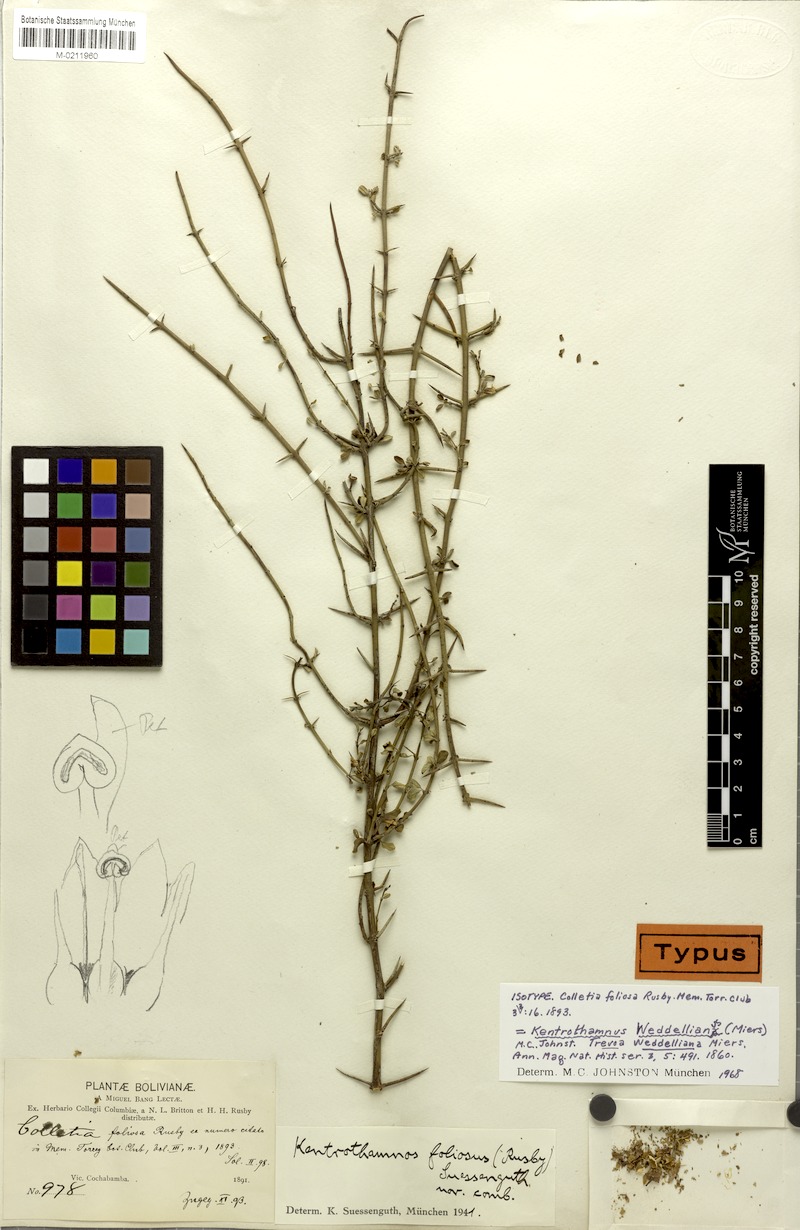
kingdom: Plantae
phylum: Tracheophyta
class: Magnoliopsida
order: Rosales
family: Rhamnaceae
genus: Kentrothamnus
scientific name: Kentrothamnus weddellianus
